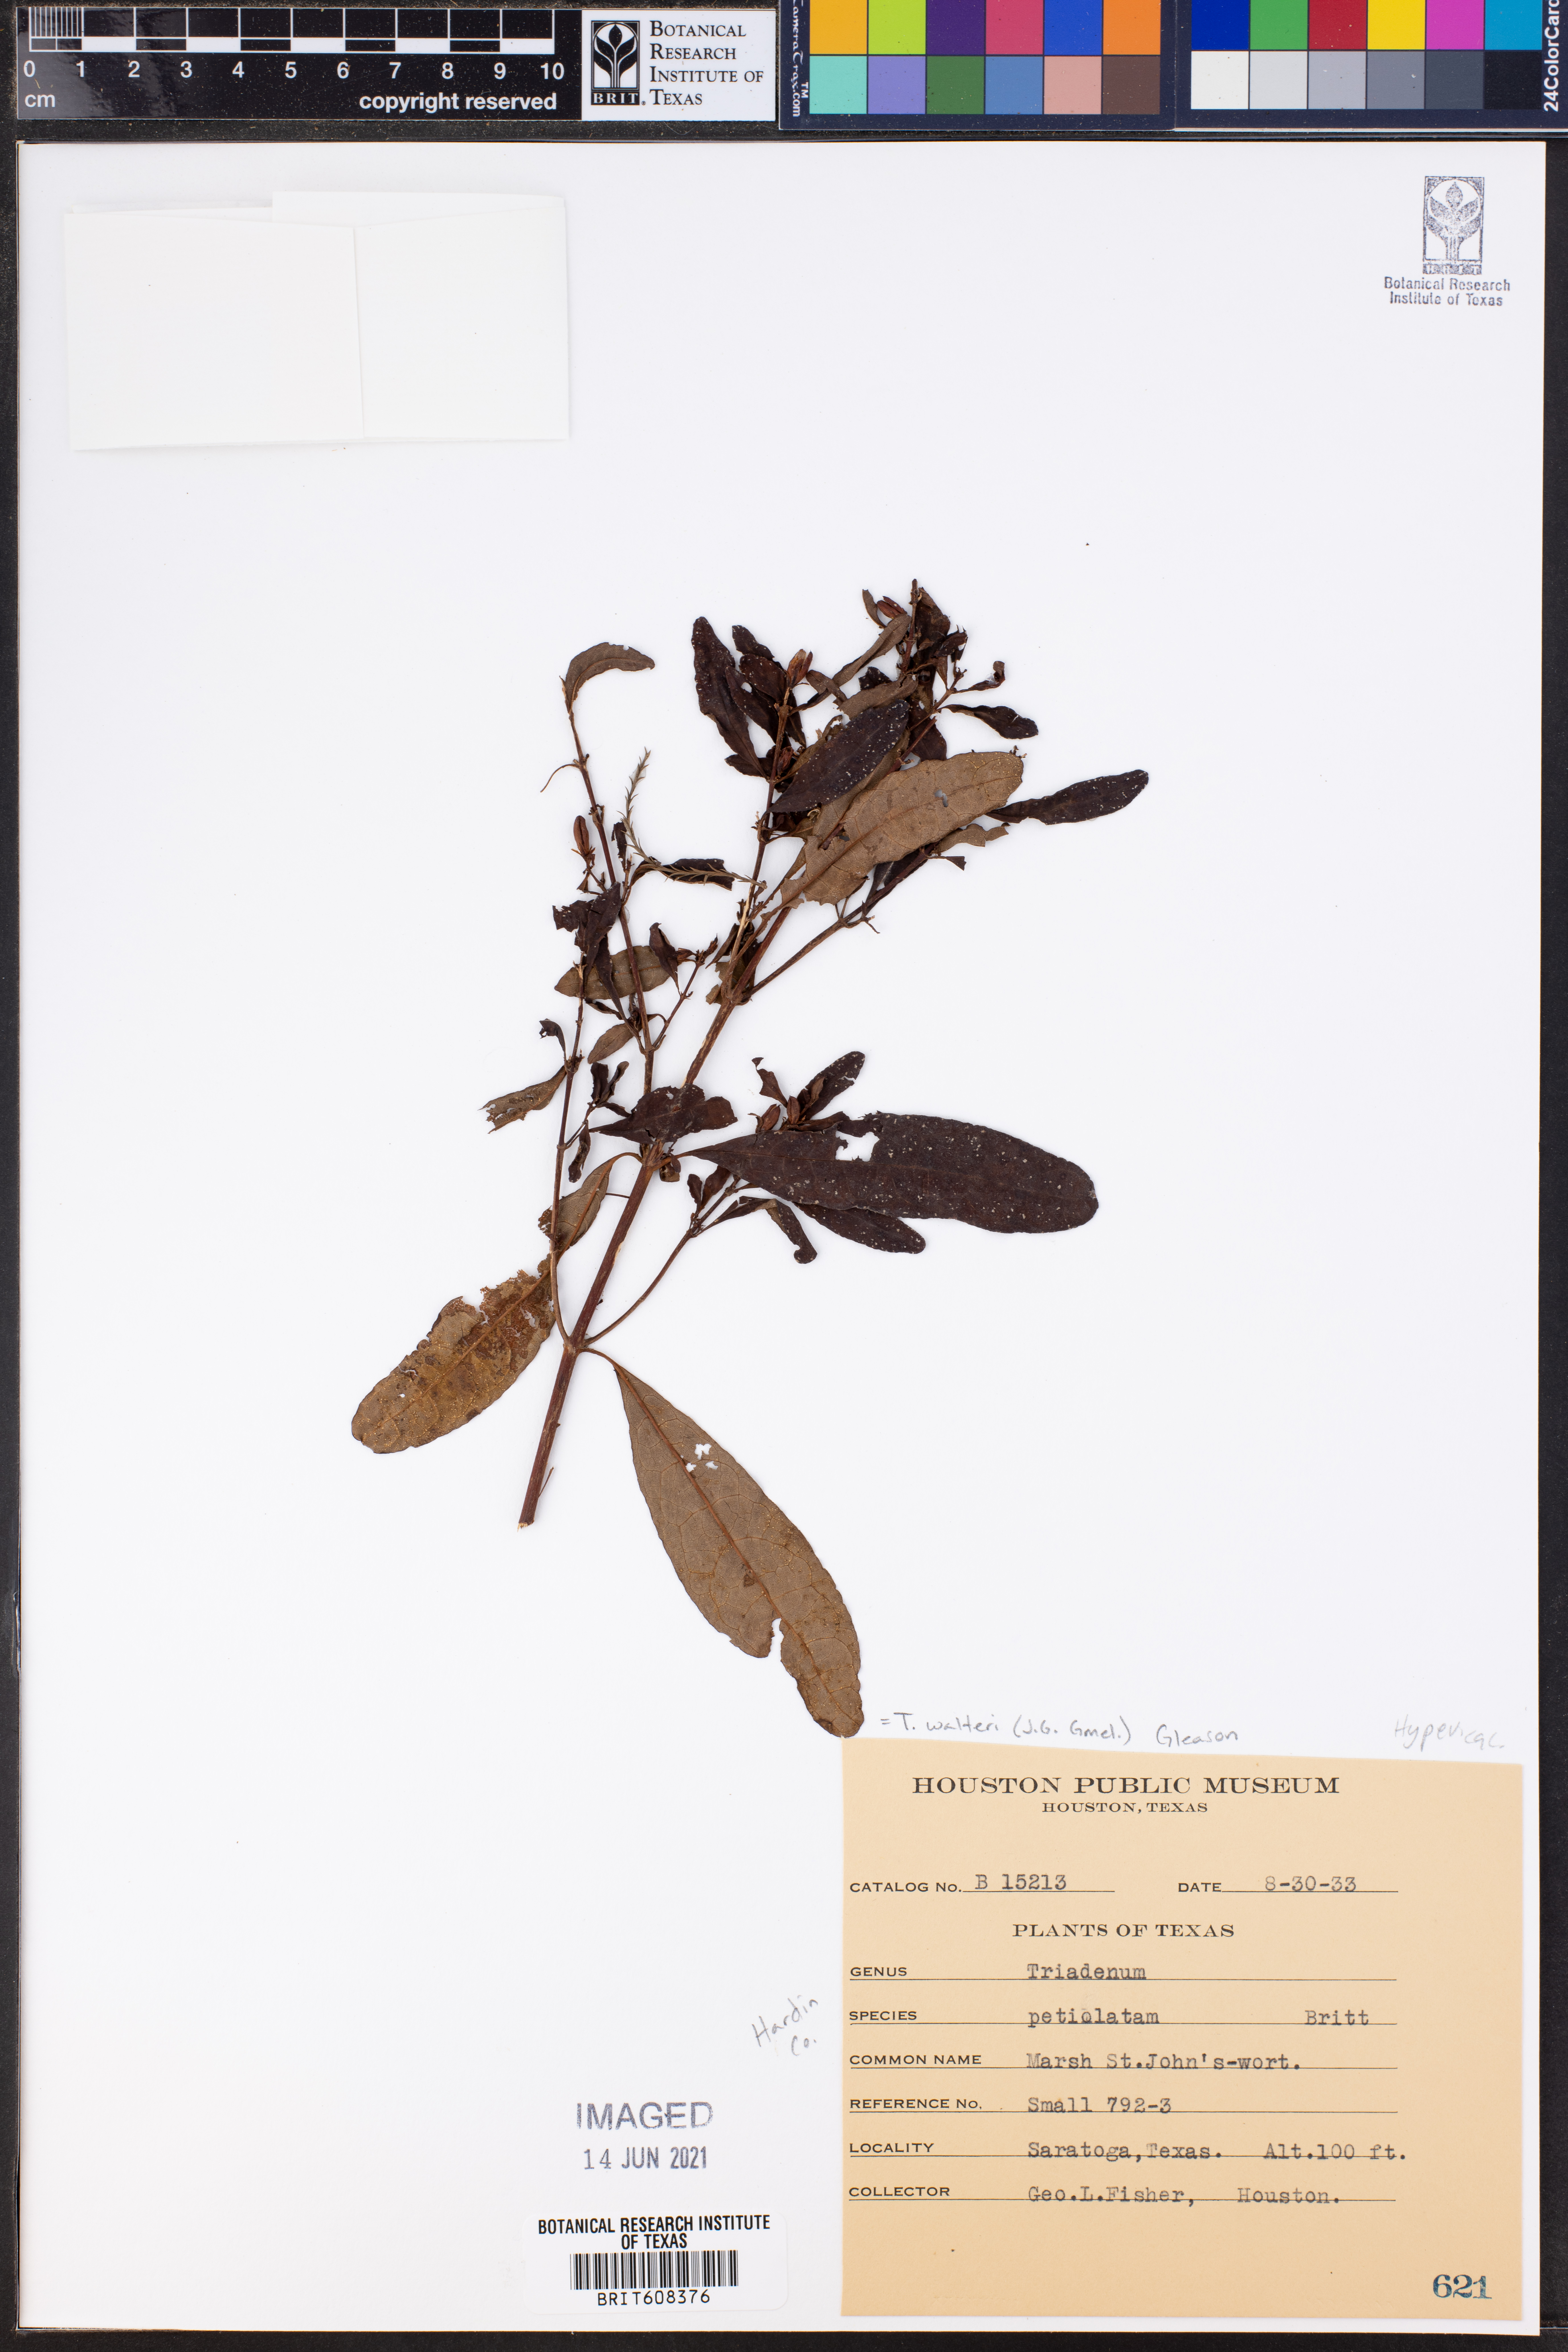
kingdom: Plantae
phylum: Tracheophyta
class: Magnoliopsida
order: Malpighiales
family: Hypericaceae
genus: Triadenum
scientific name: Triadenum walteri
